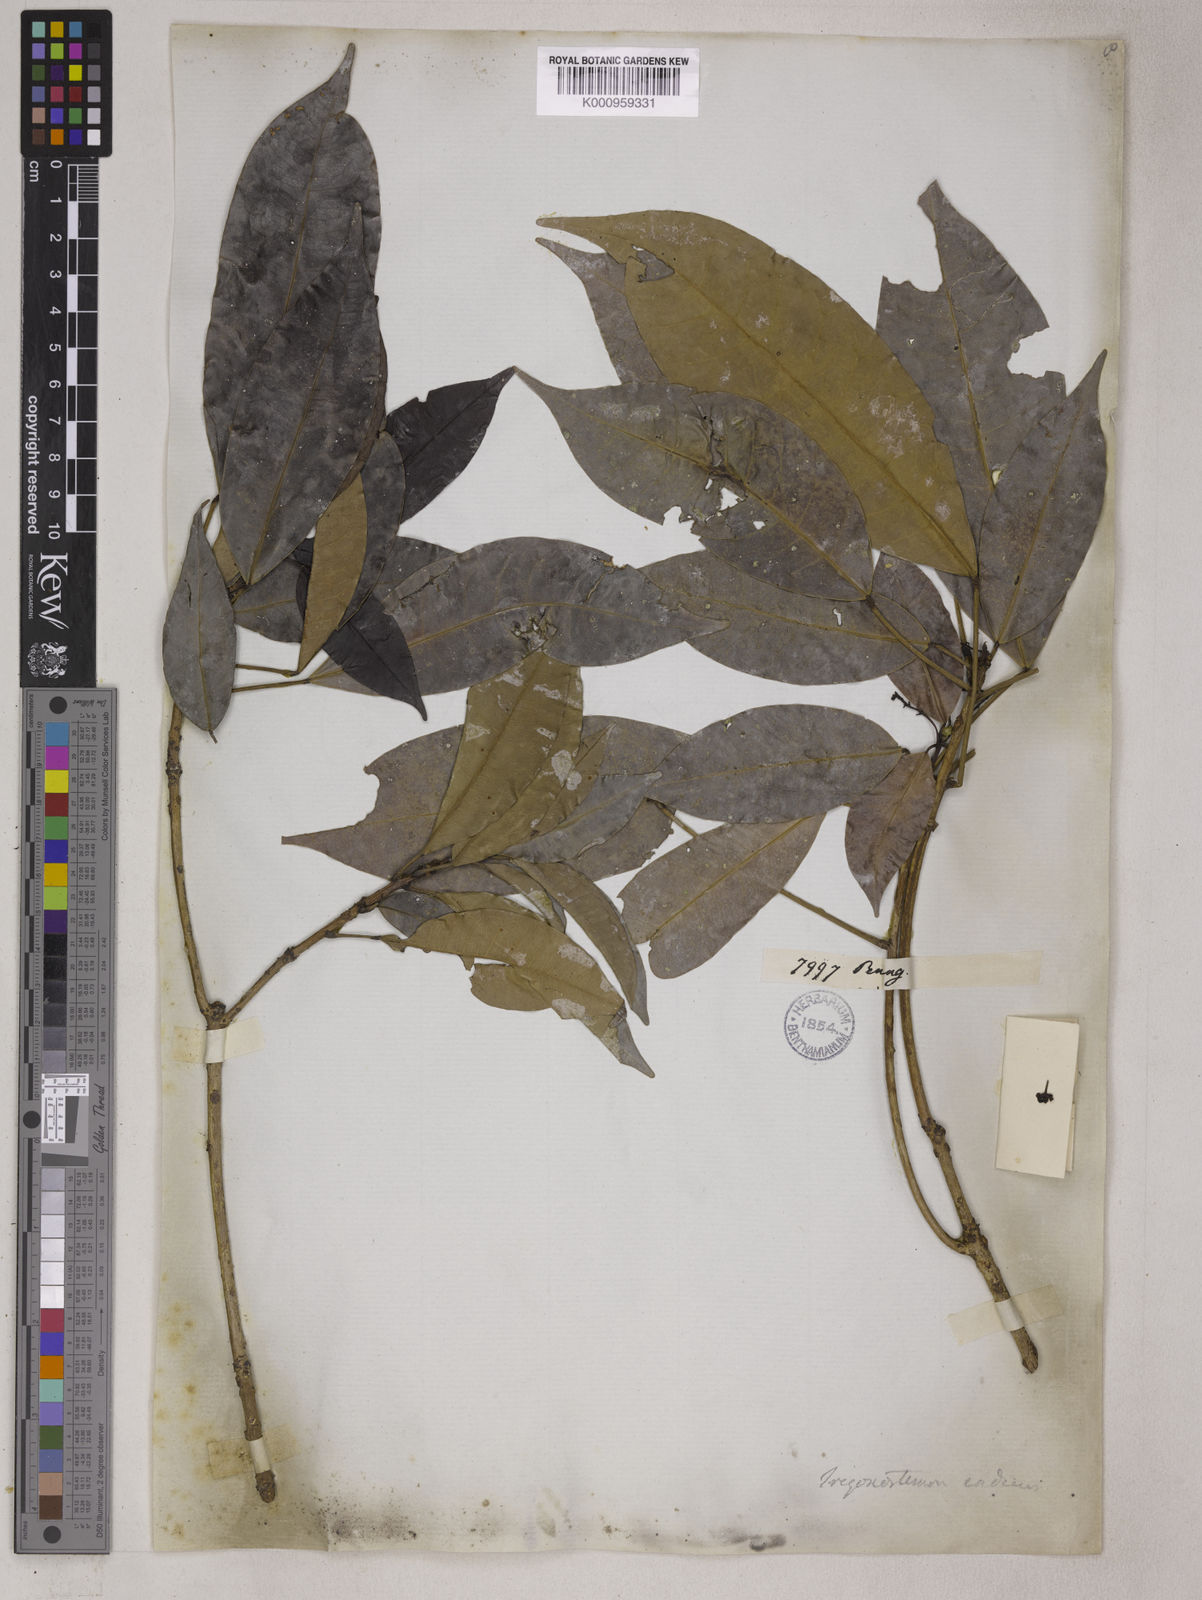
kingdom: Plantae
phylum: Tracheophyta
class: Magnoliopsida
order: Malpighiales
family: Euphorbiaceae
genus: Trigonostemon
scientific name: Trigonostemon verticillatus
